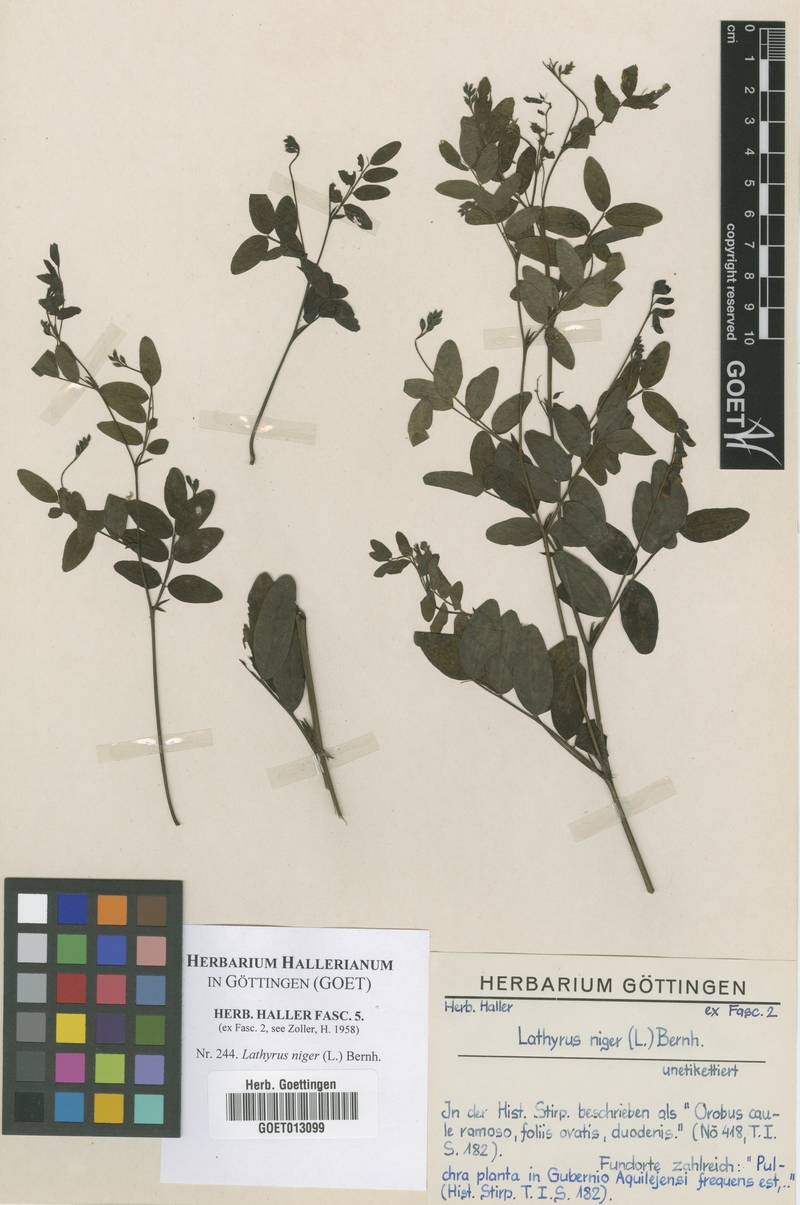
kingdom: Plantae
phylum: Tracheophyta
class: Magnoliopsida
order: Fabales
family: Fabaceae
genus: Lathyrus
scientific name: Lathyrus niger
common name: Black pea
